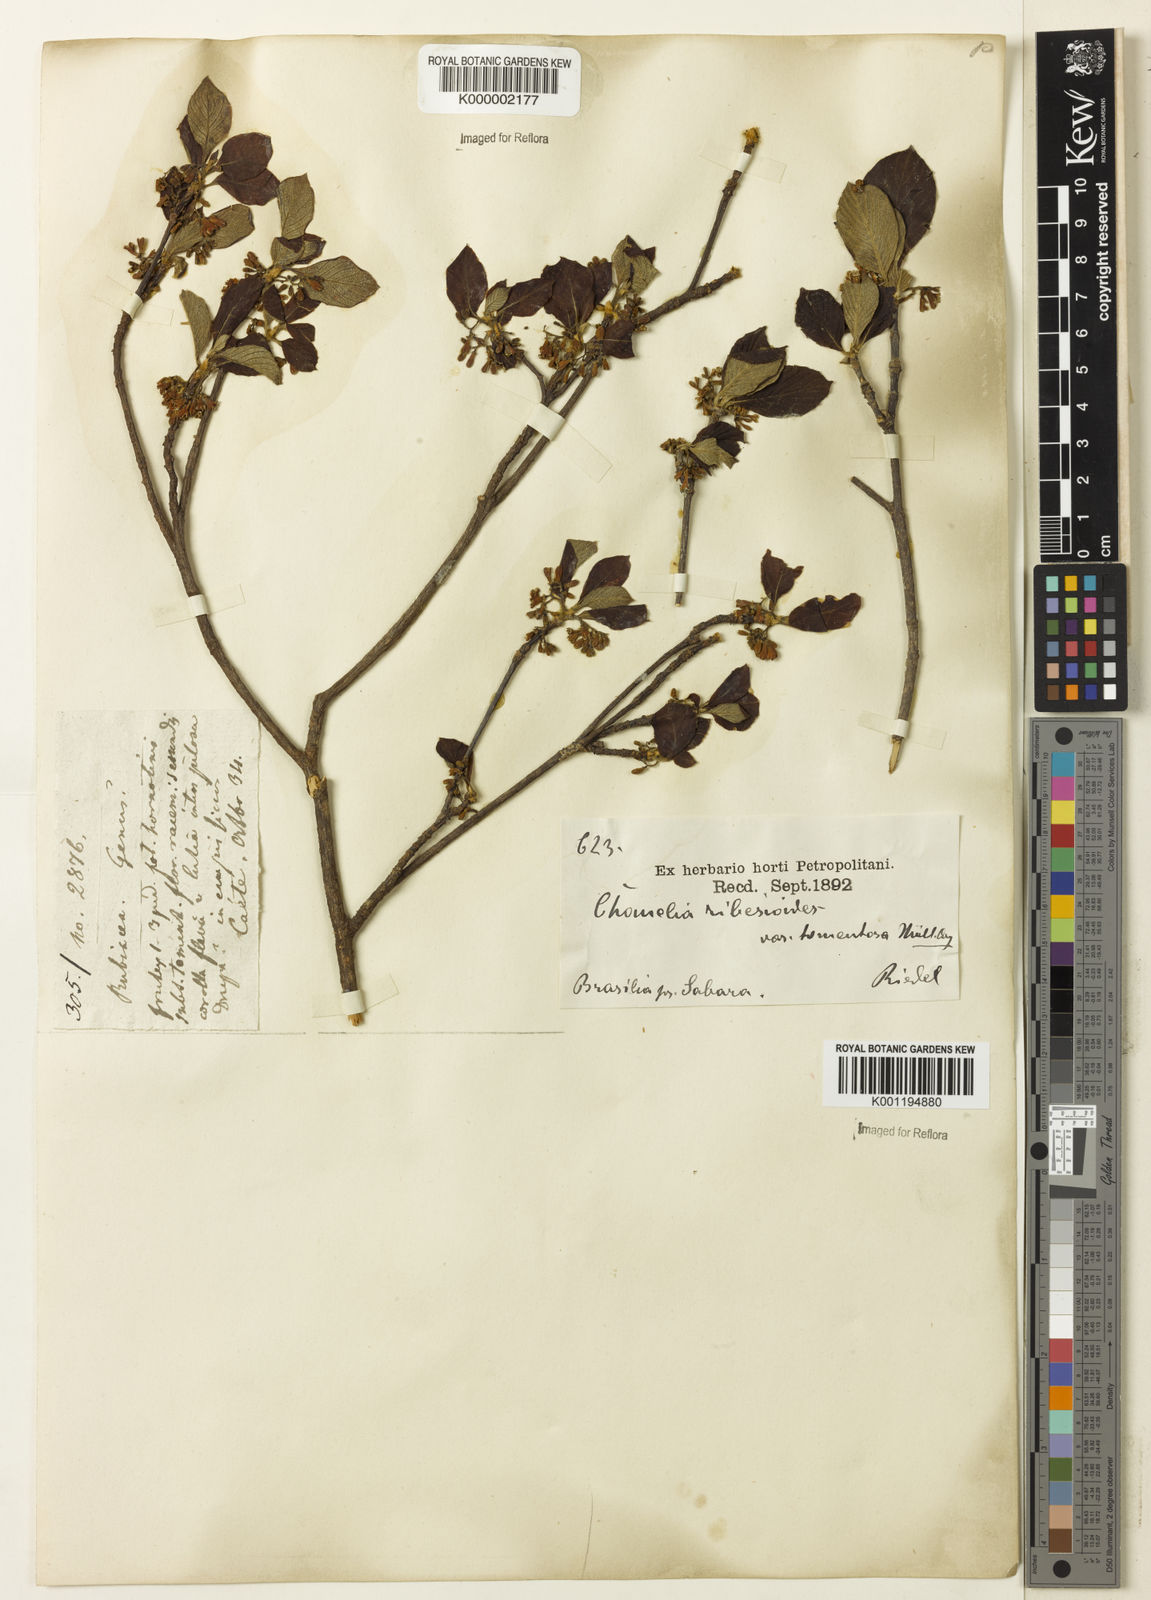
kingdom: Plantae
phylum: Tracheophyta
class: Magnoliopsida
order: Gentianales
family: Rubiaceae
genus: Chomelia
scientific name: Chomelia ribesioides
